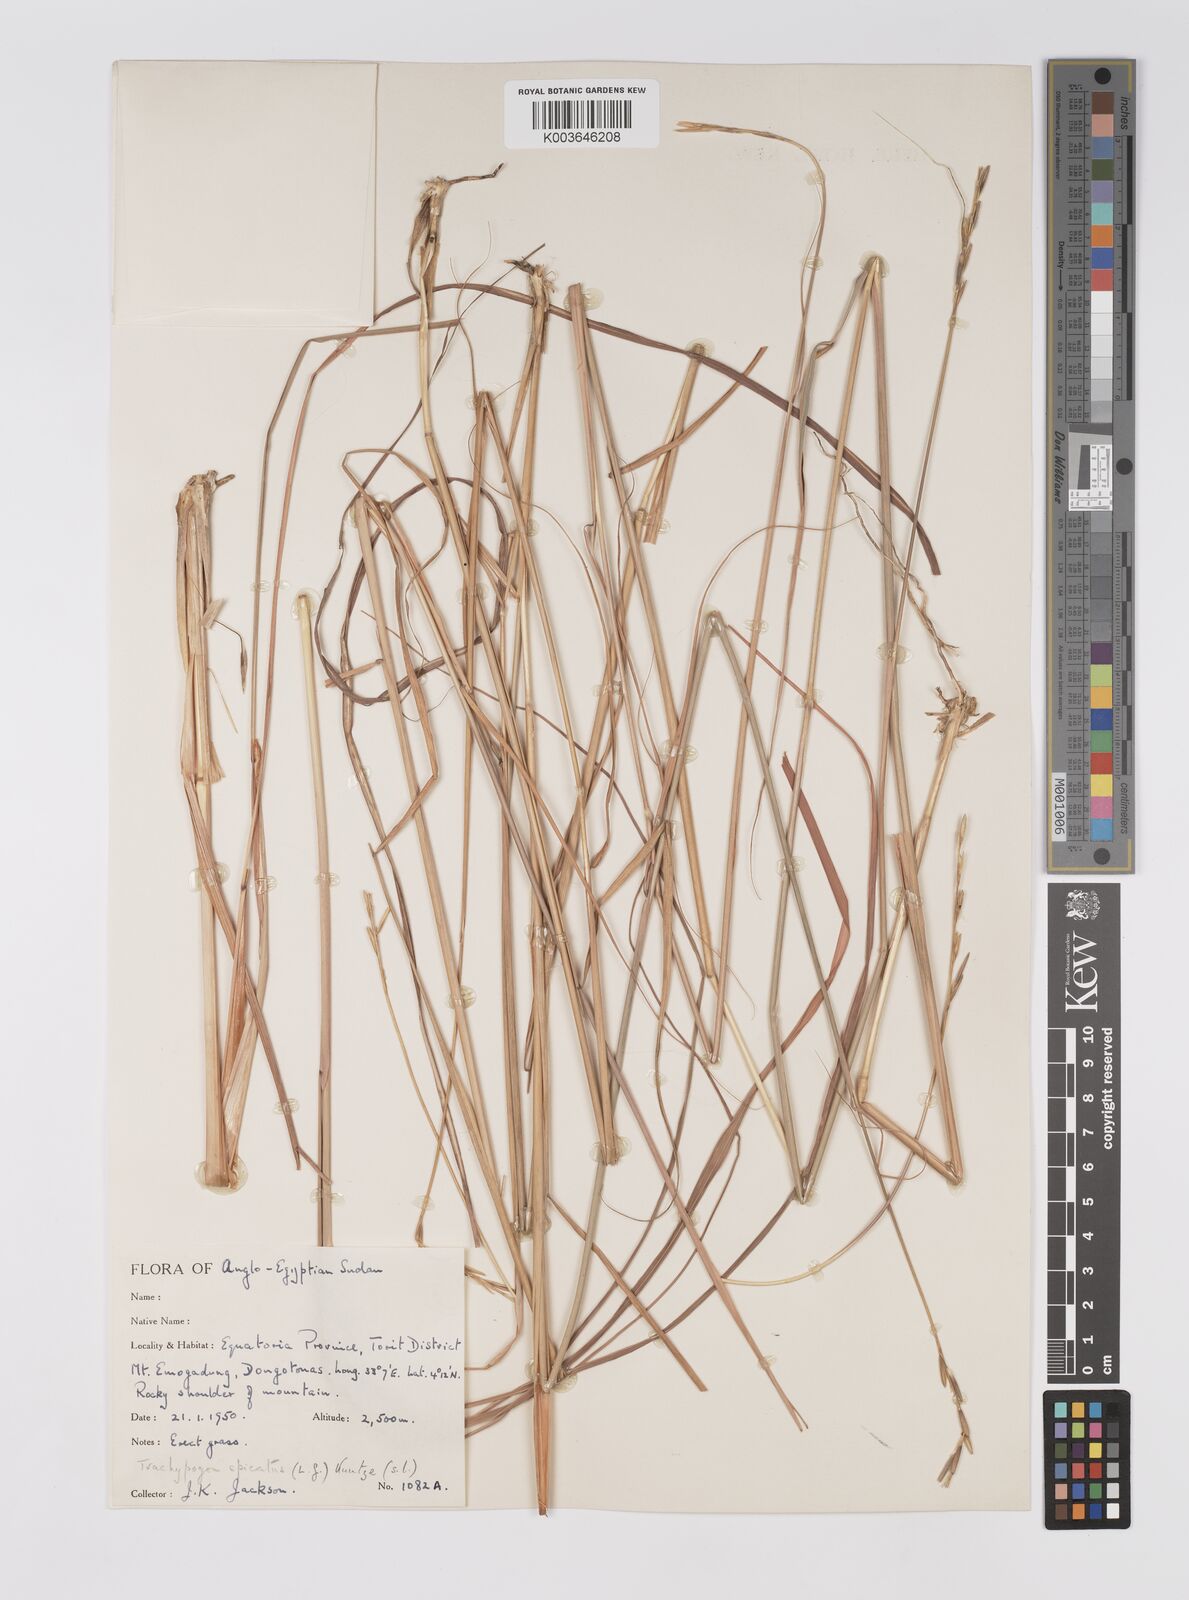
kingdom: Plantae
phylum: Tracheophyta
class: Liliopsida
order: Poales
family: Poaceae
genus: Trachypogon
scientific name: Trachypogon spicatus
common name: Crinkle-awn
